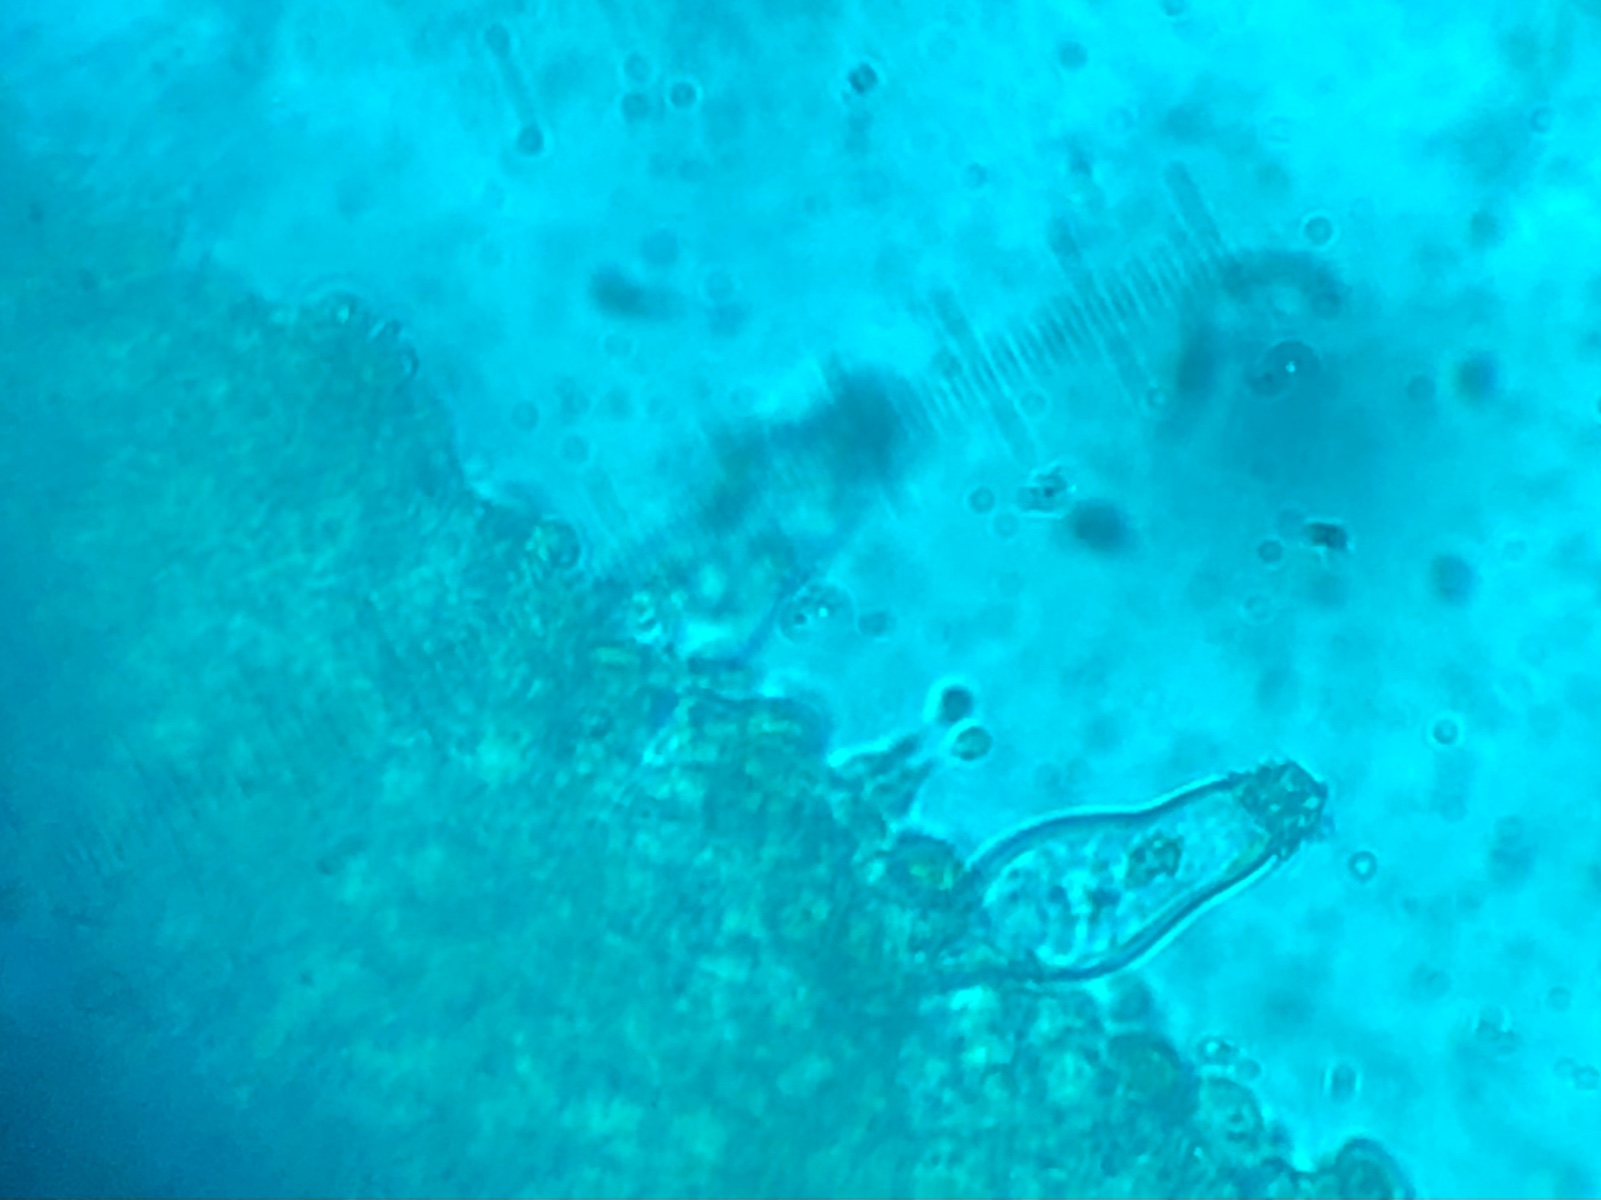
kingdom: Fungi
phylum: Basidiomycota
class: Agaricomycetes
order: Agaricales
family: Hymenogastraceae
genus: Galerina
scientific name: Galerina nana
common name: dværg-hjelmhat
